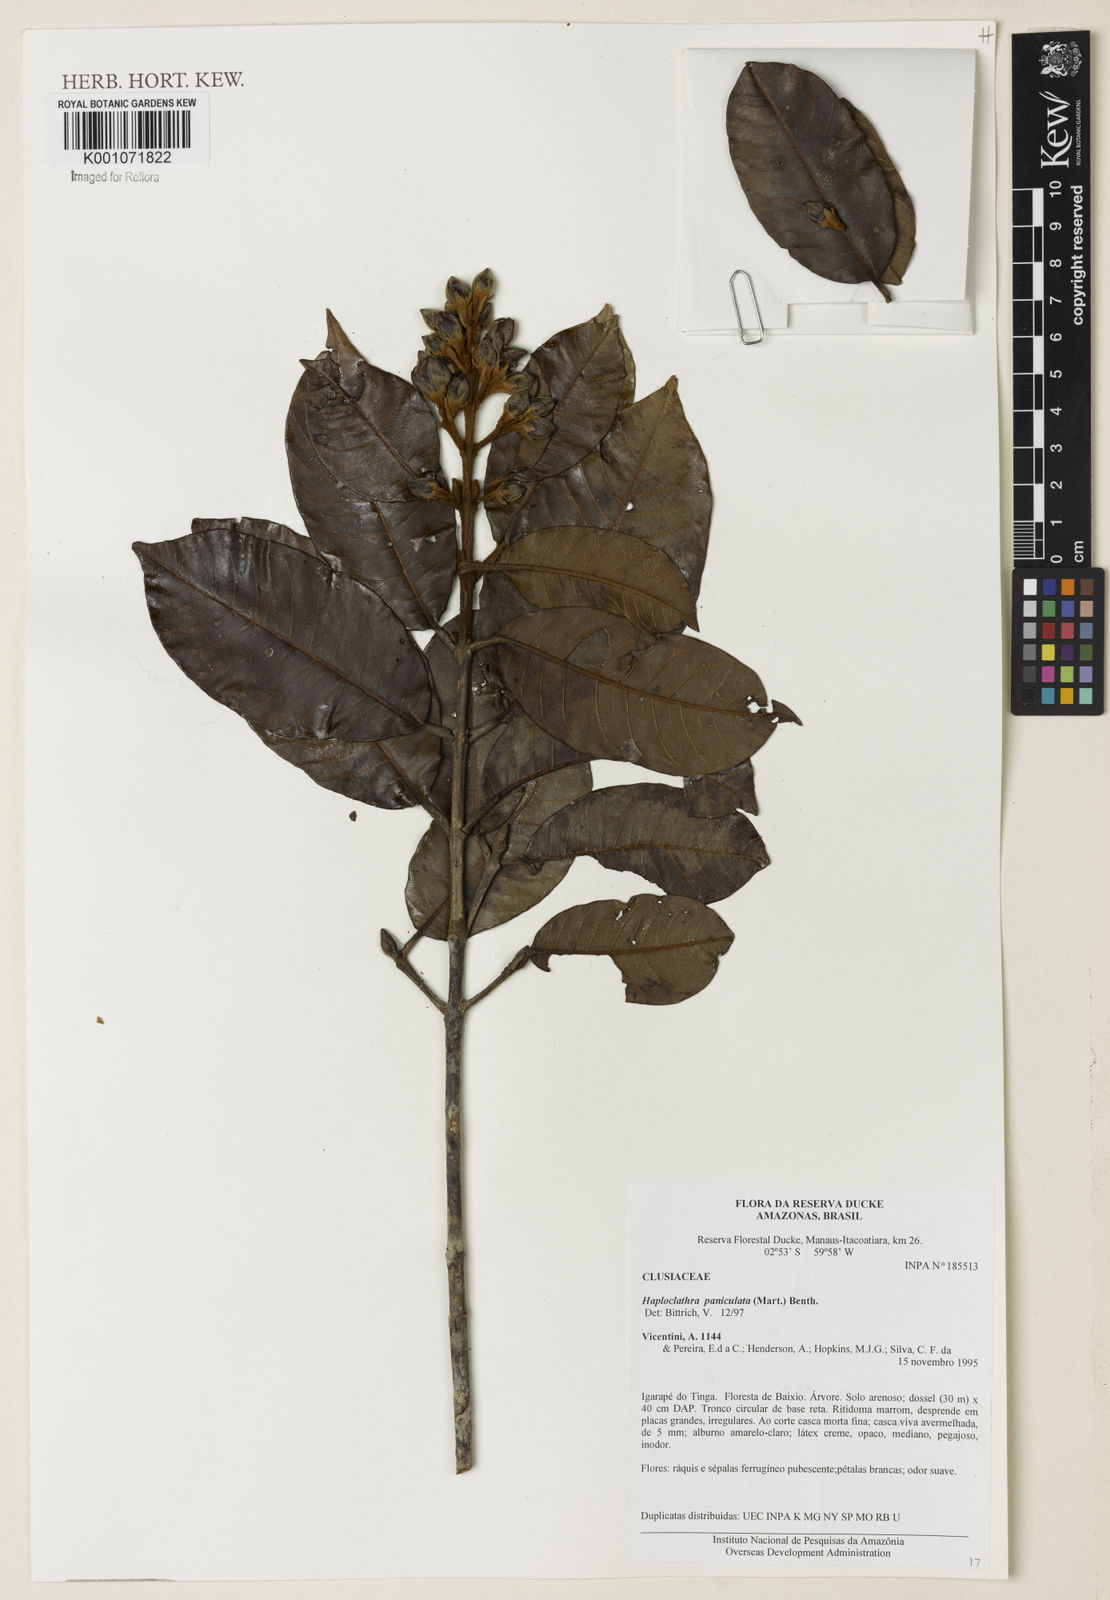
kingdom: Plantae
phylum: Tracheophyta
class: Magnoliopsida
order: Malpighiales
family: Calophyllaceae
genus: Haploclathra
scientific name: Haploclathra paniculata
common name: Red-wood
